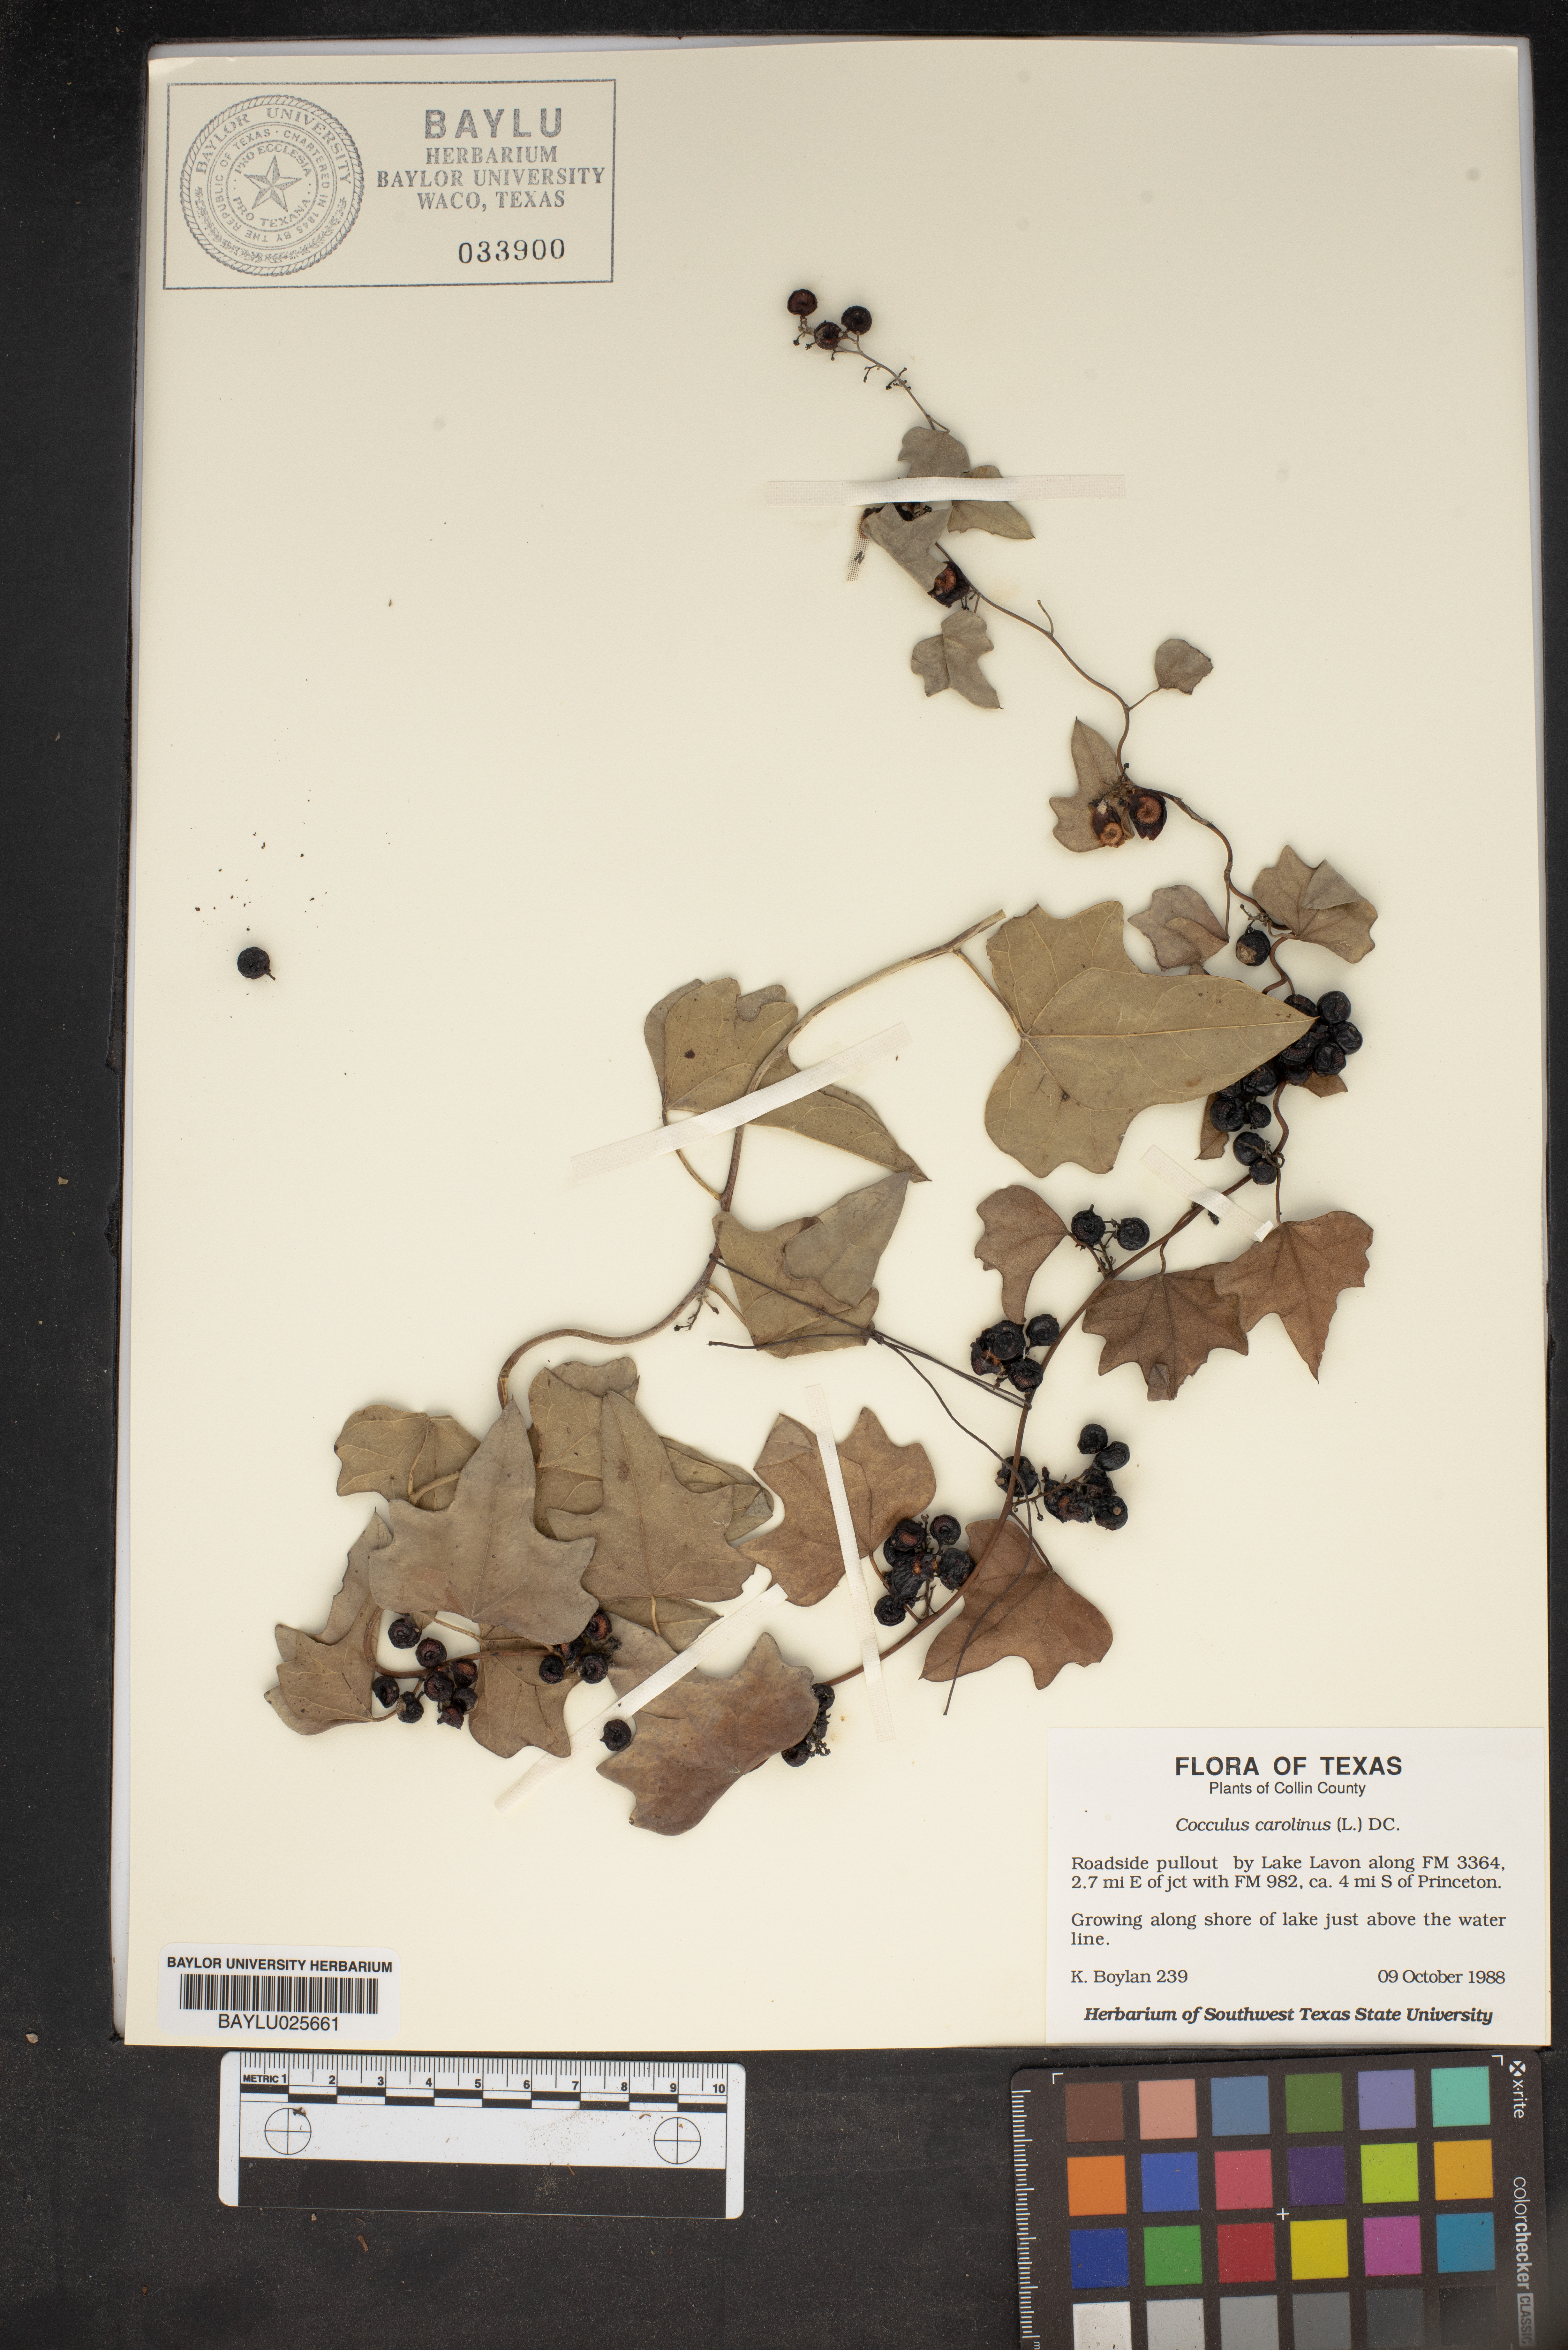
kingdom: Plantae
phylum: Tracheophyta
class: Magnoliopsida
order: Ranunculales
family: Menispermaceae
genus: Cocculus
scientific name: Cocculus carolinus
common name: Carolina moonseed
